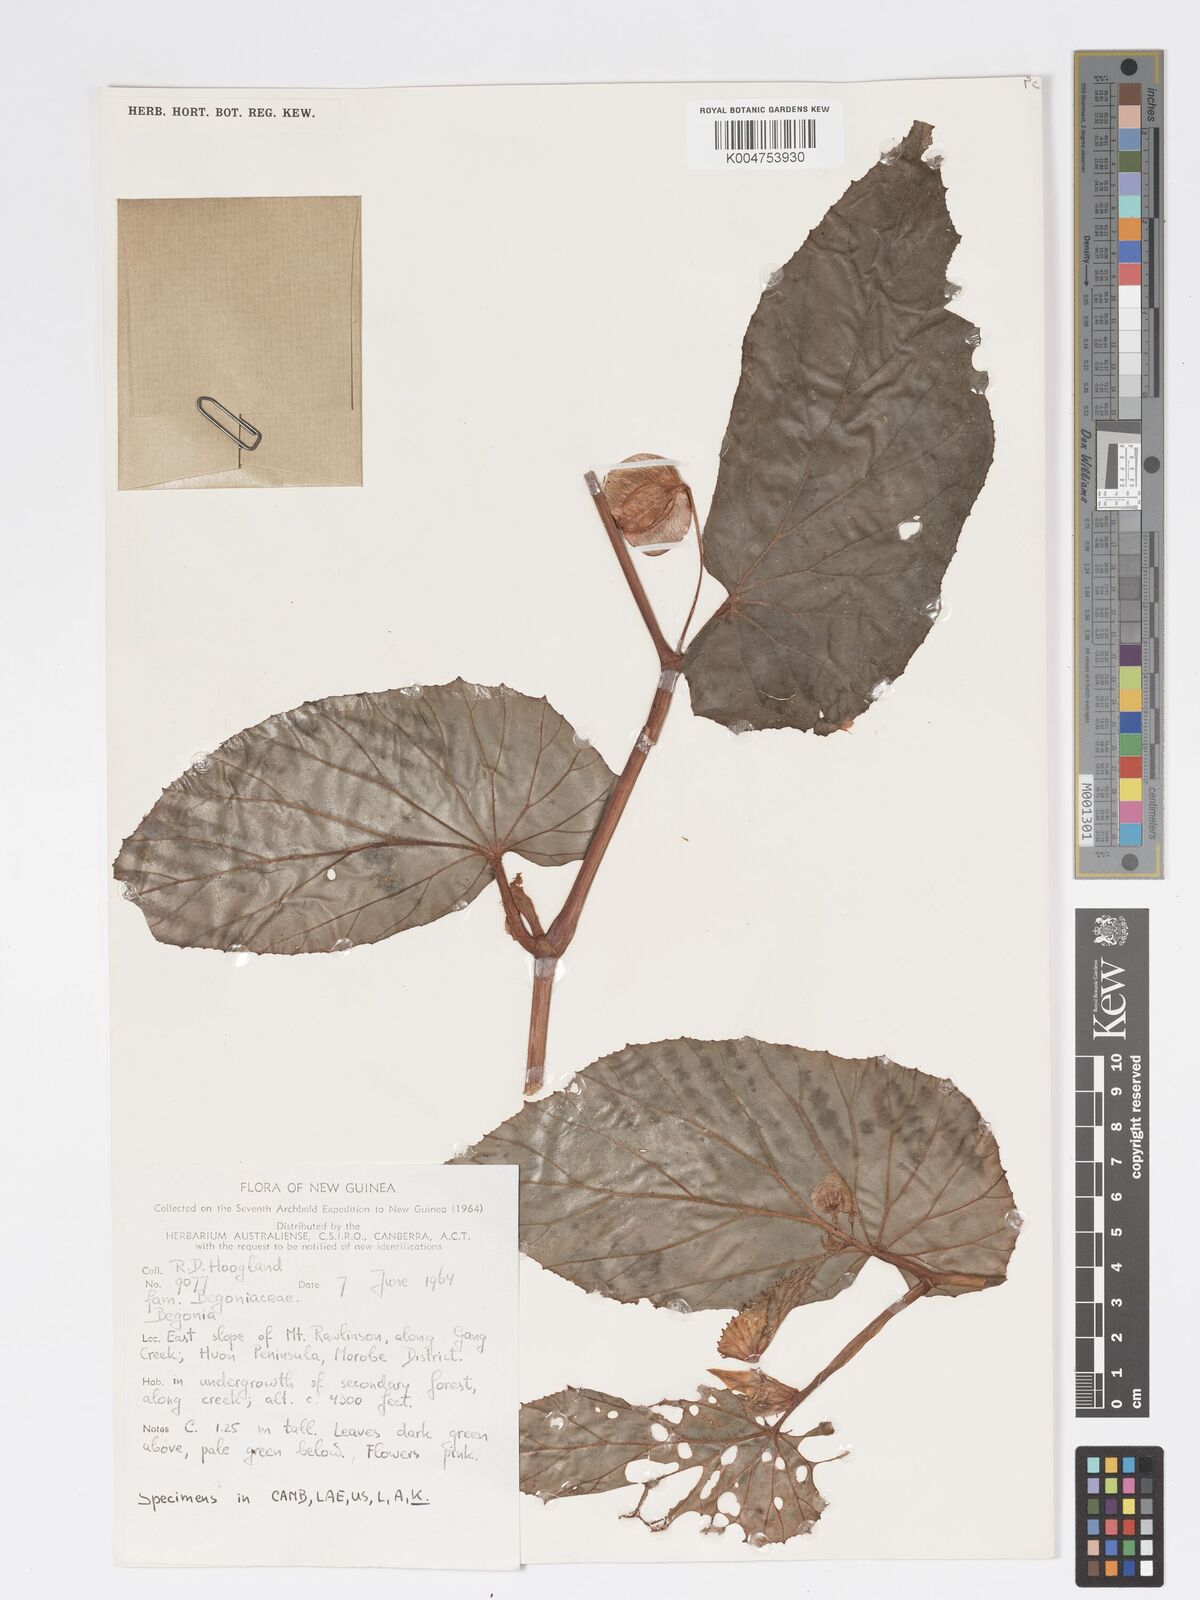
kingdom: Plantae
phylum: Tracheophyta
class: Magnoliopsida
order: Cucurbitales
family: Begoniaceae
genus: Begonia
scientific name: Begonia augustae
